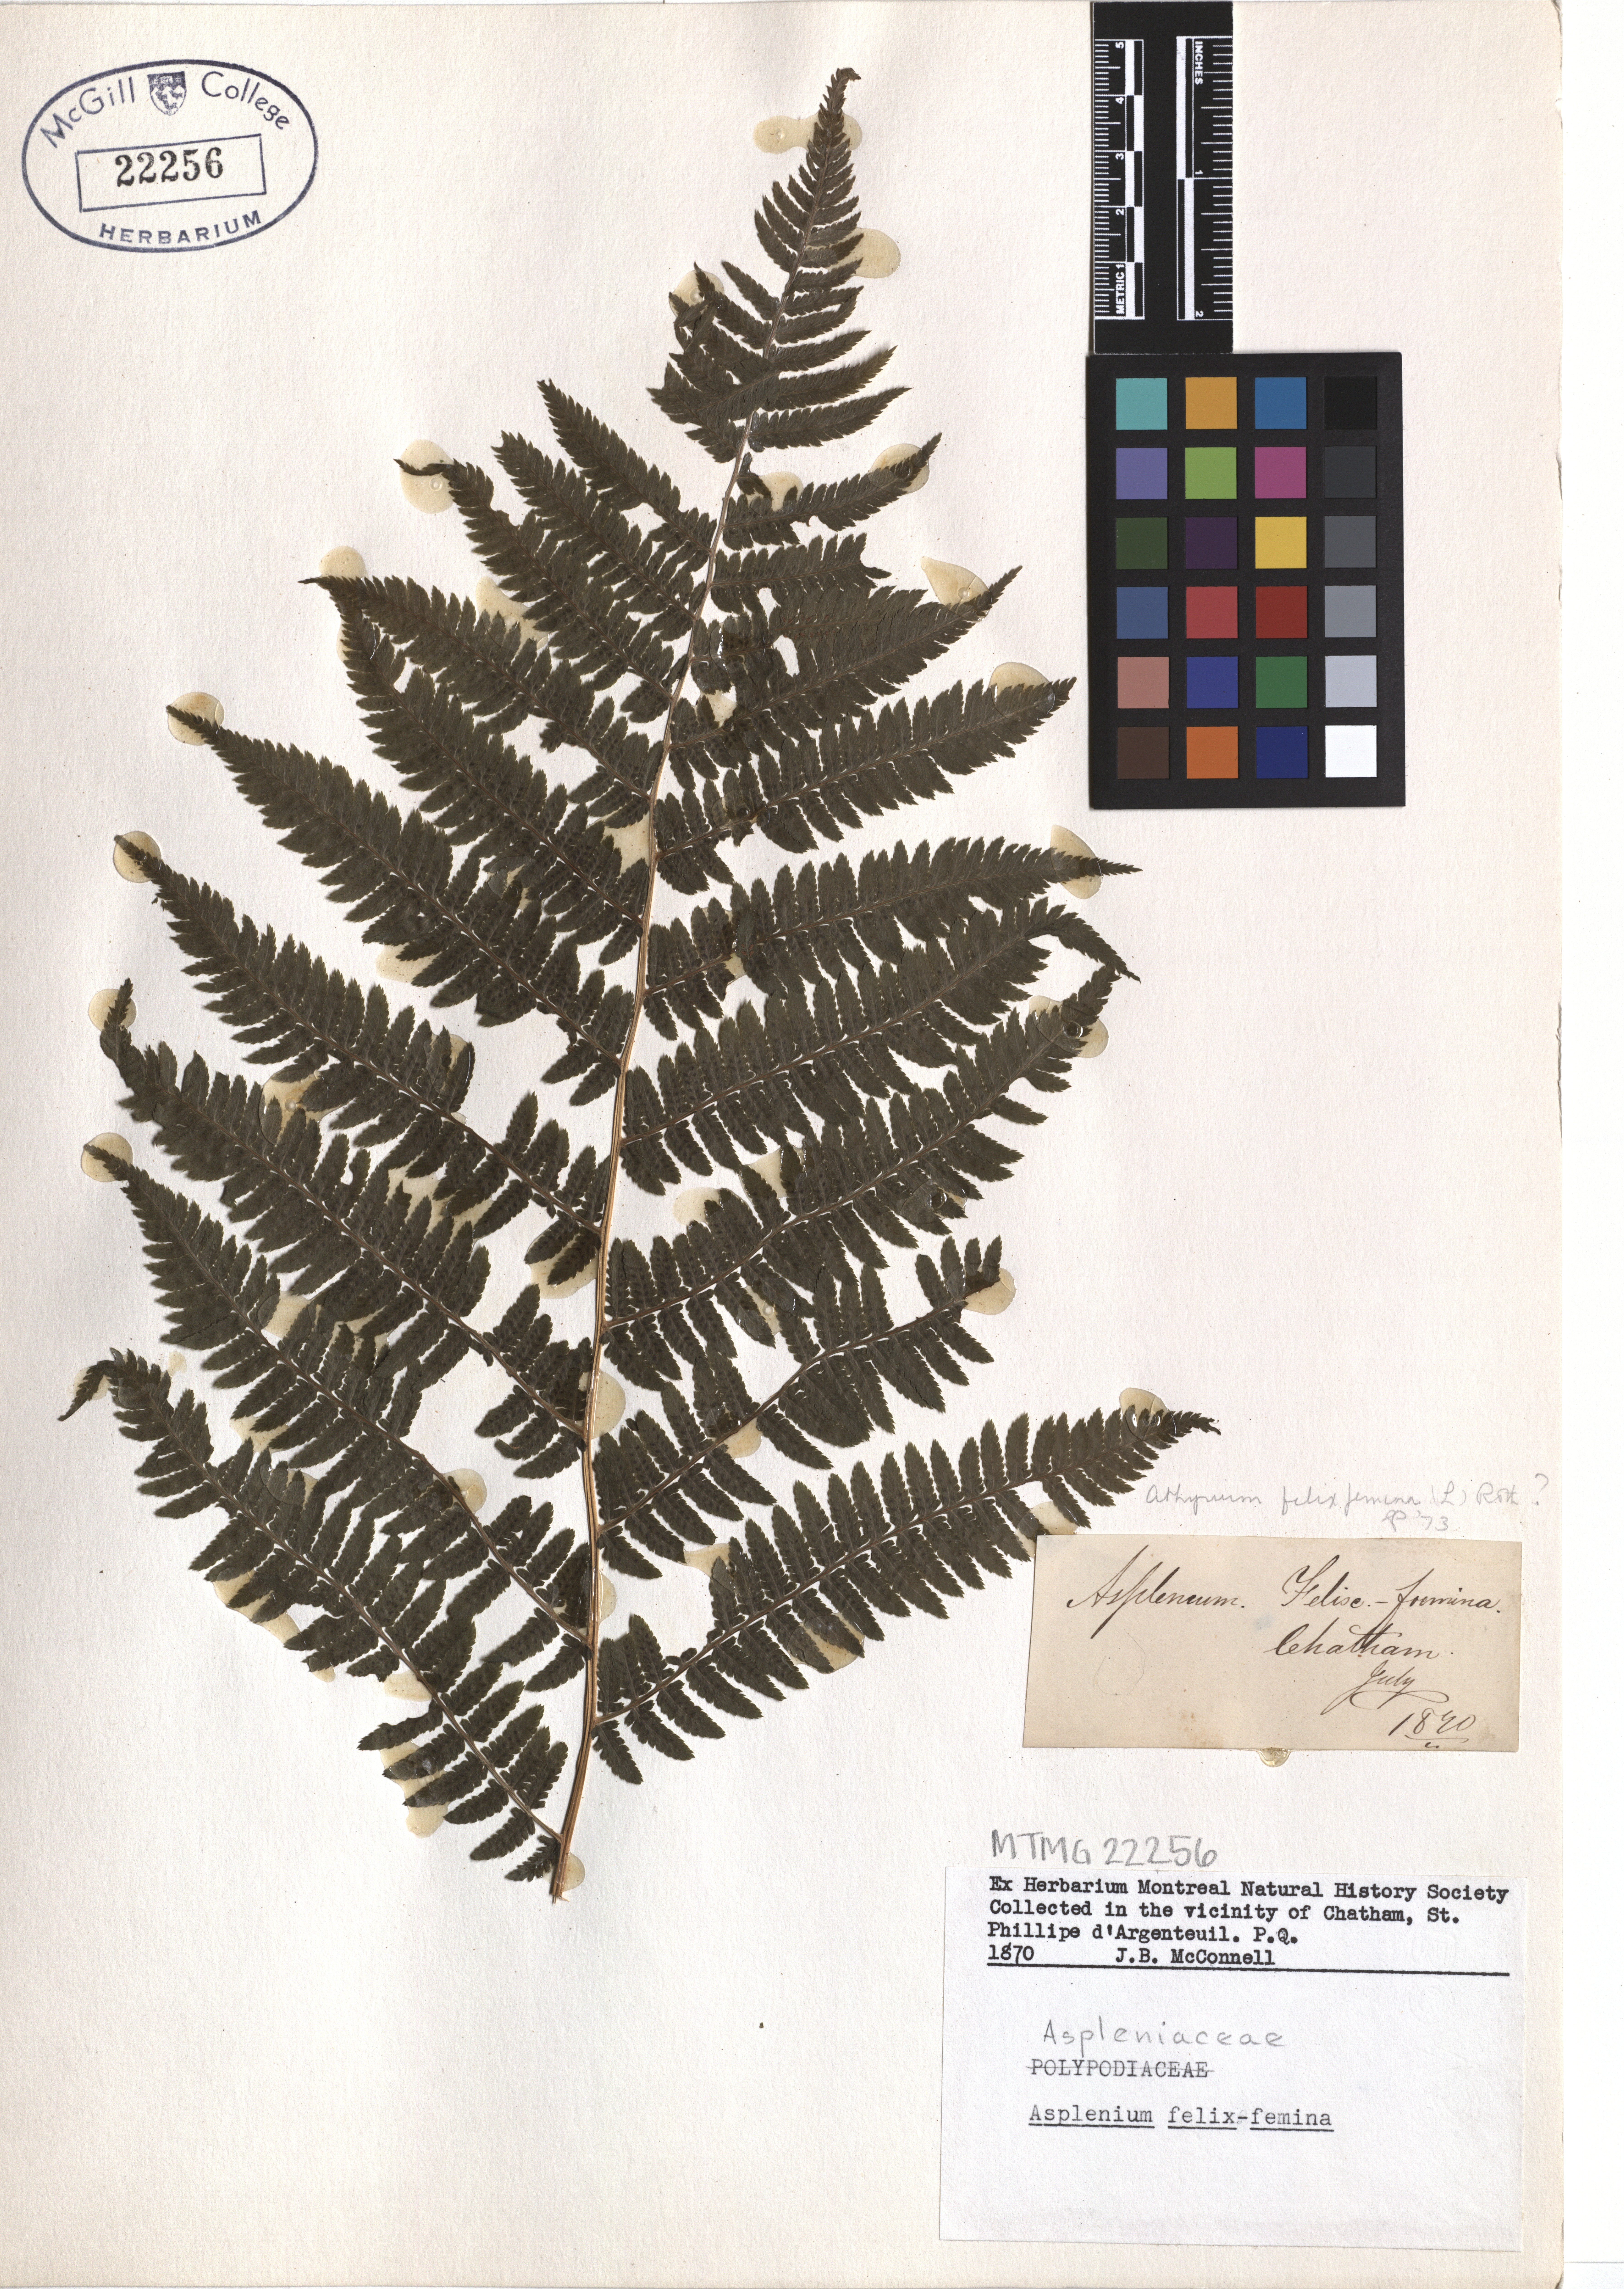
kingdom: Plantae
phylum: Tracheophyta
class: Polypodiopsida
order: Polypodiales
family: Athyriaceae
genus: Athyrium
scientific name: Athyrium filix-femina
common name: Lady fern
